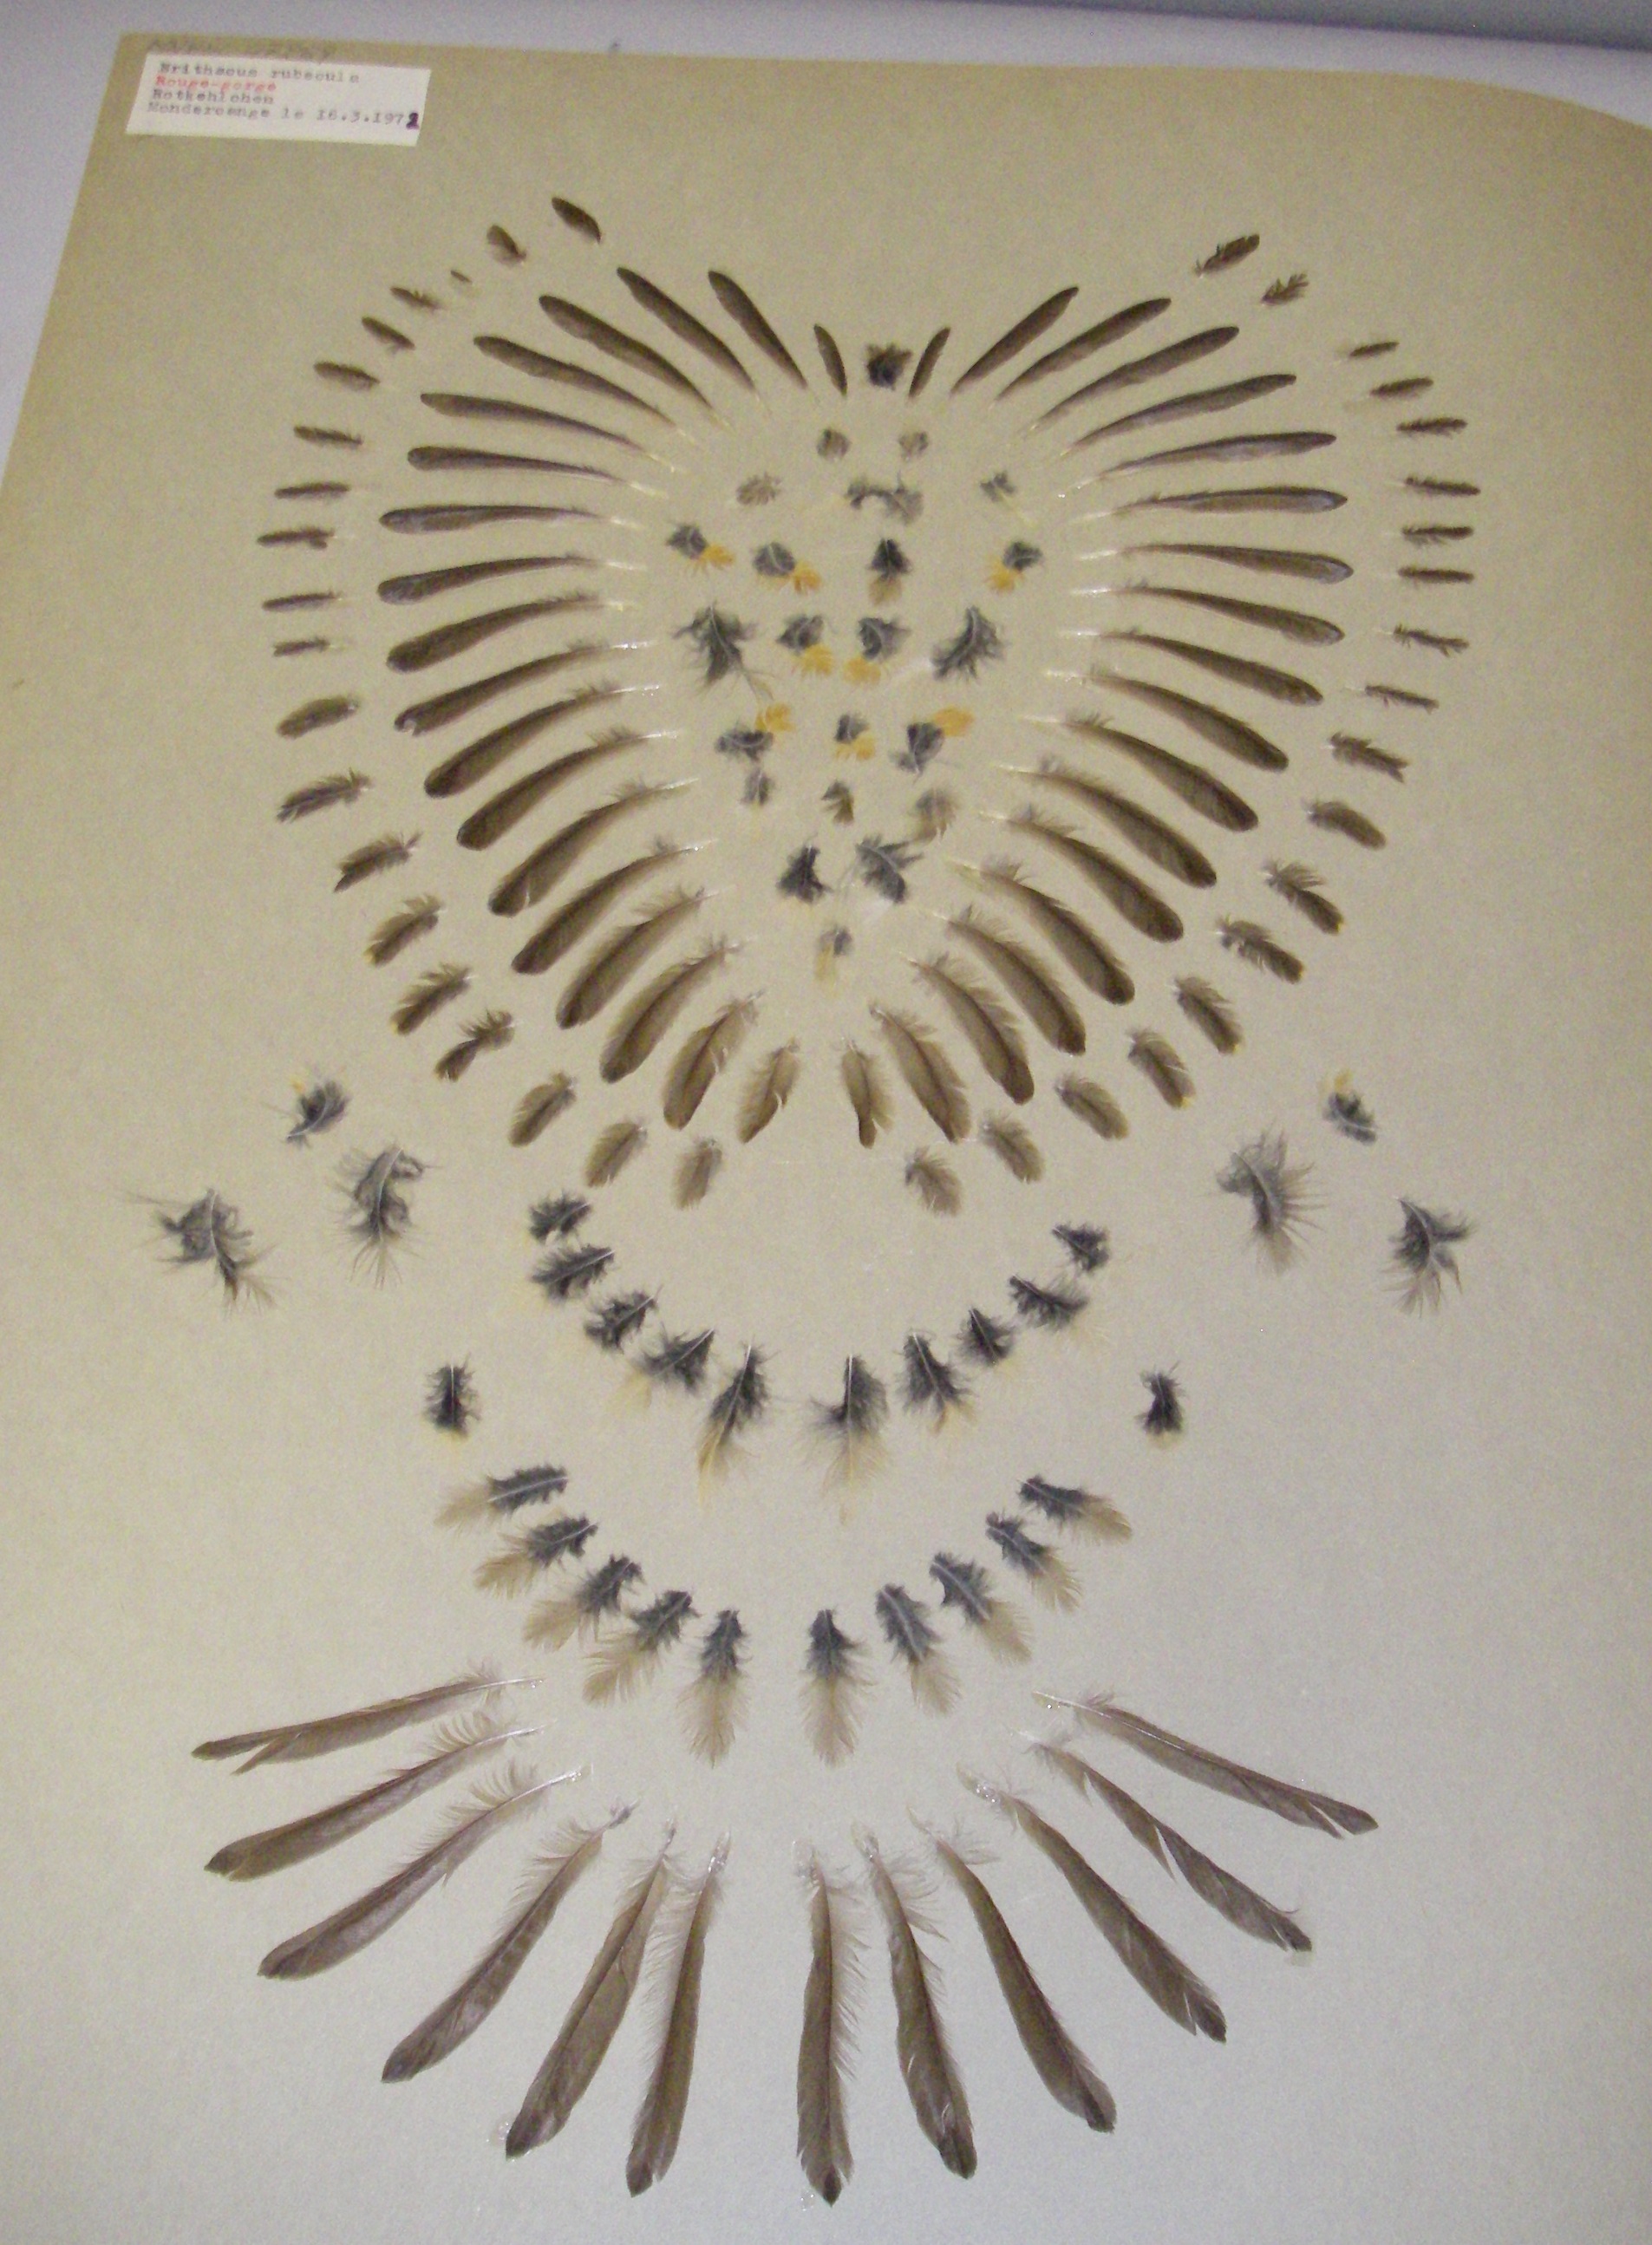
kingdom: Animalia
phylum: Chordata
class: Aves
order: Passeriformes
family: Muscicapidae
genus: Erithacus
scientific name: Erithacus rubecula
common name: European robin
